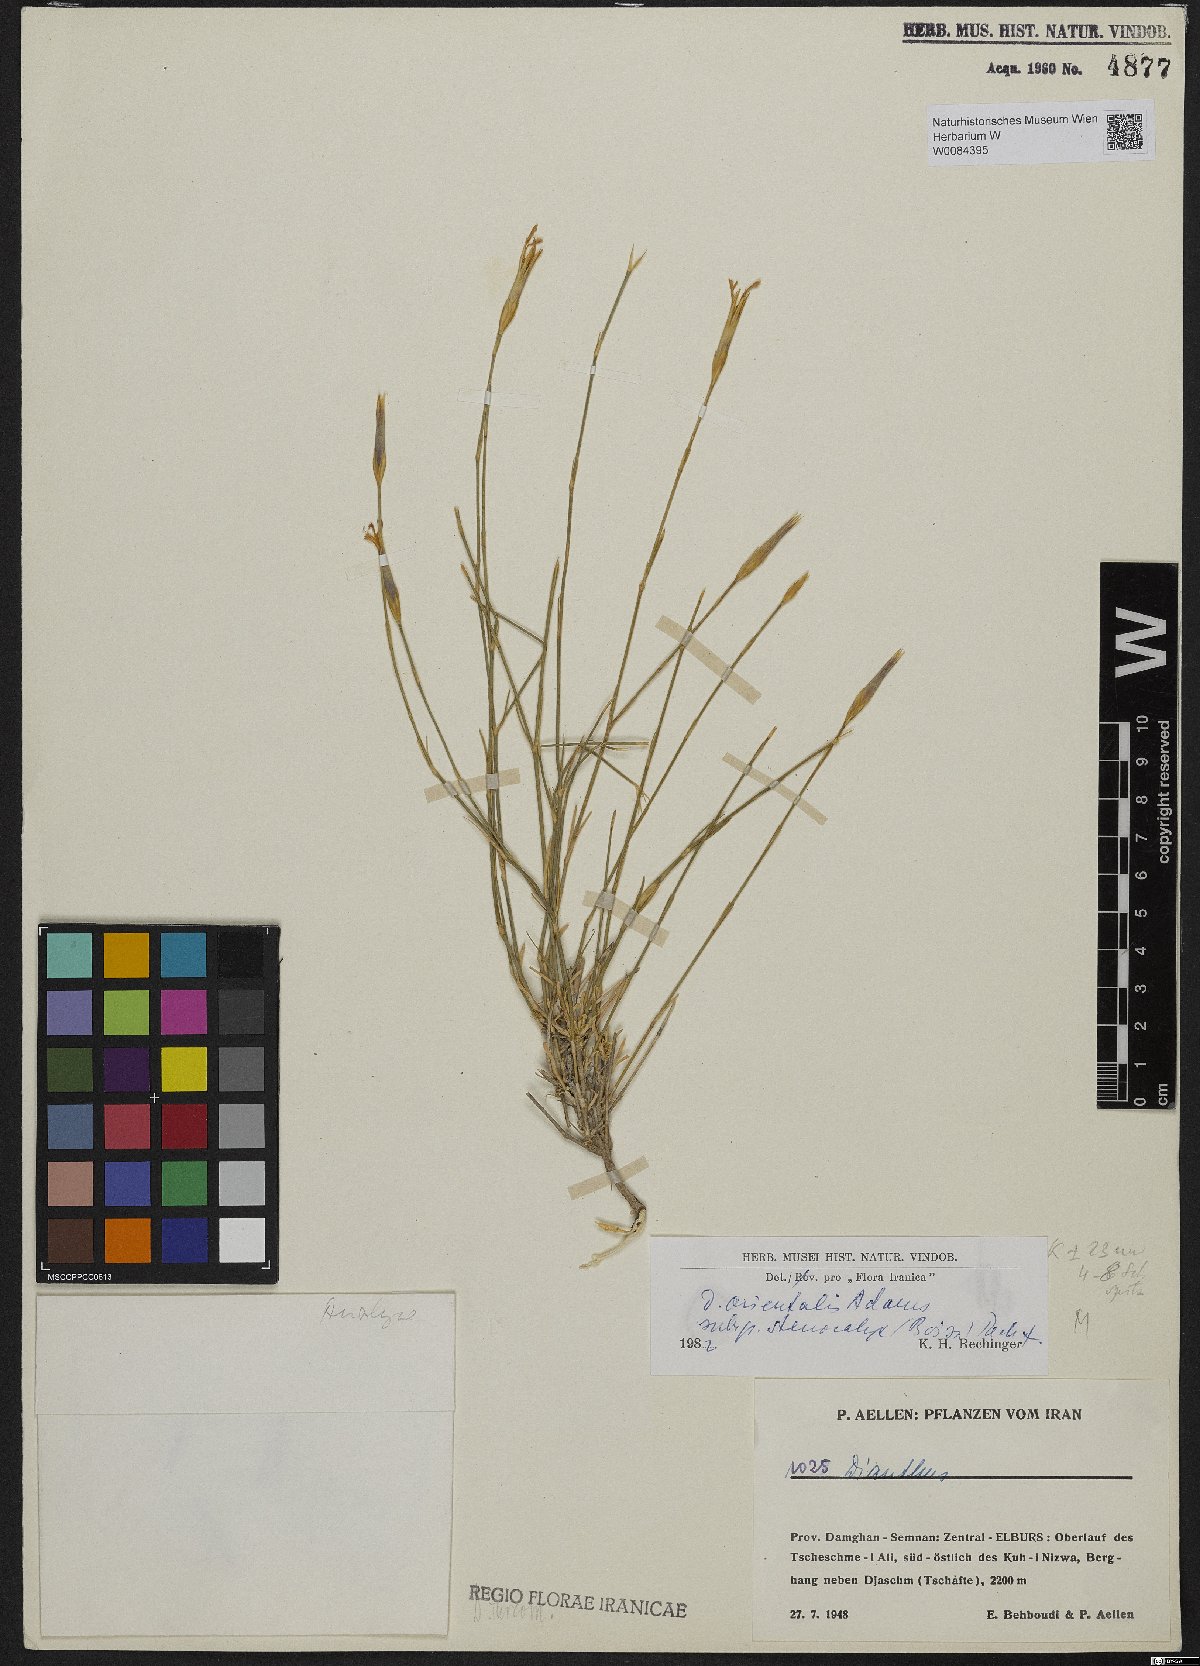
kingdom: Plantae
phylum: Tracheophyta
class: Magnoliopsida
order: Caryophyllales
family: Caryophyllaceae
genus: Dianthus
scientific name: Dianthus orientalis
